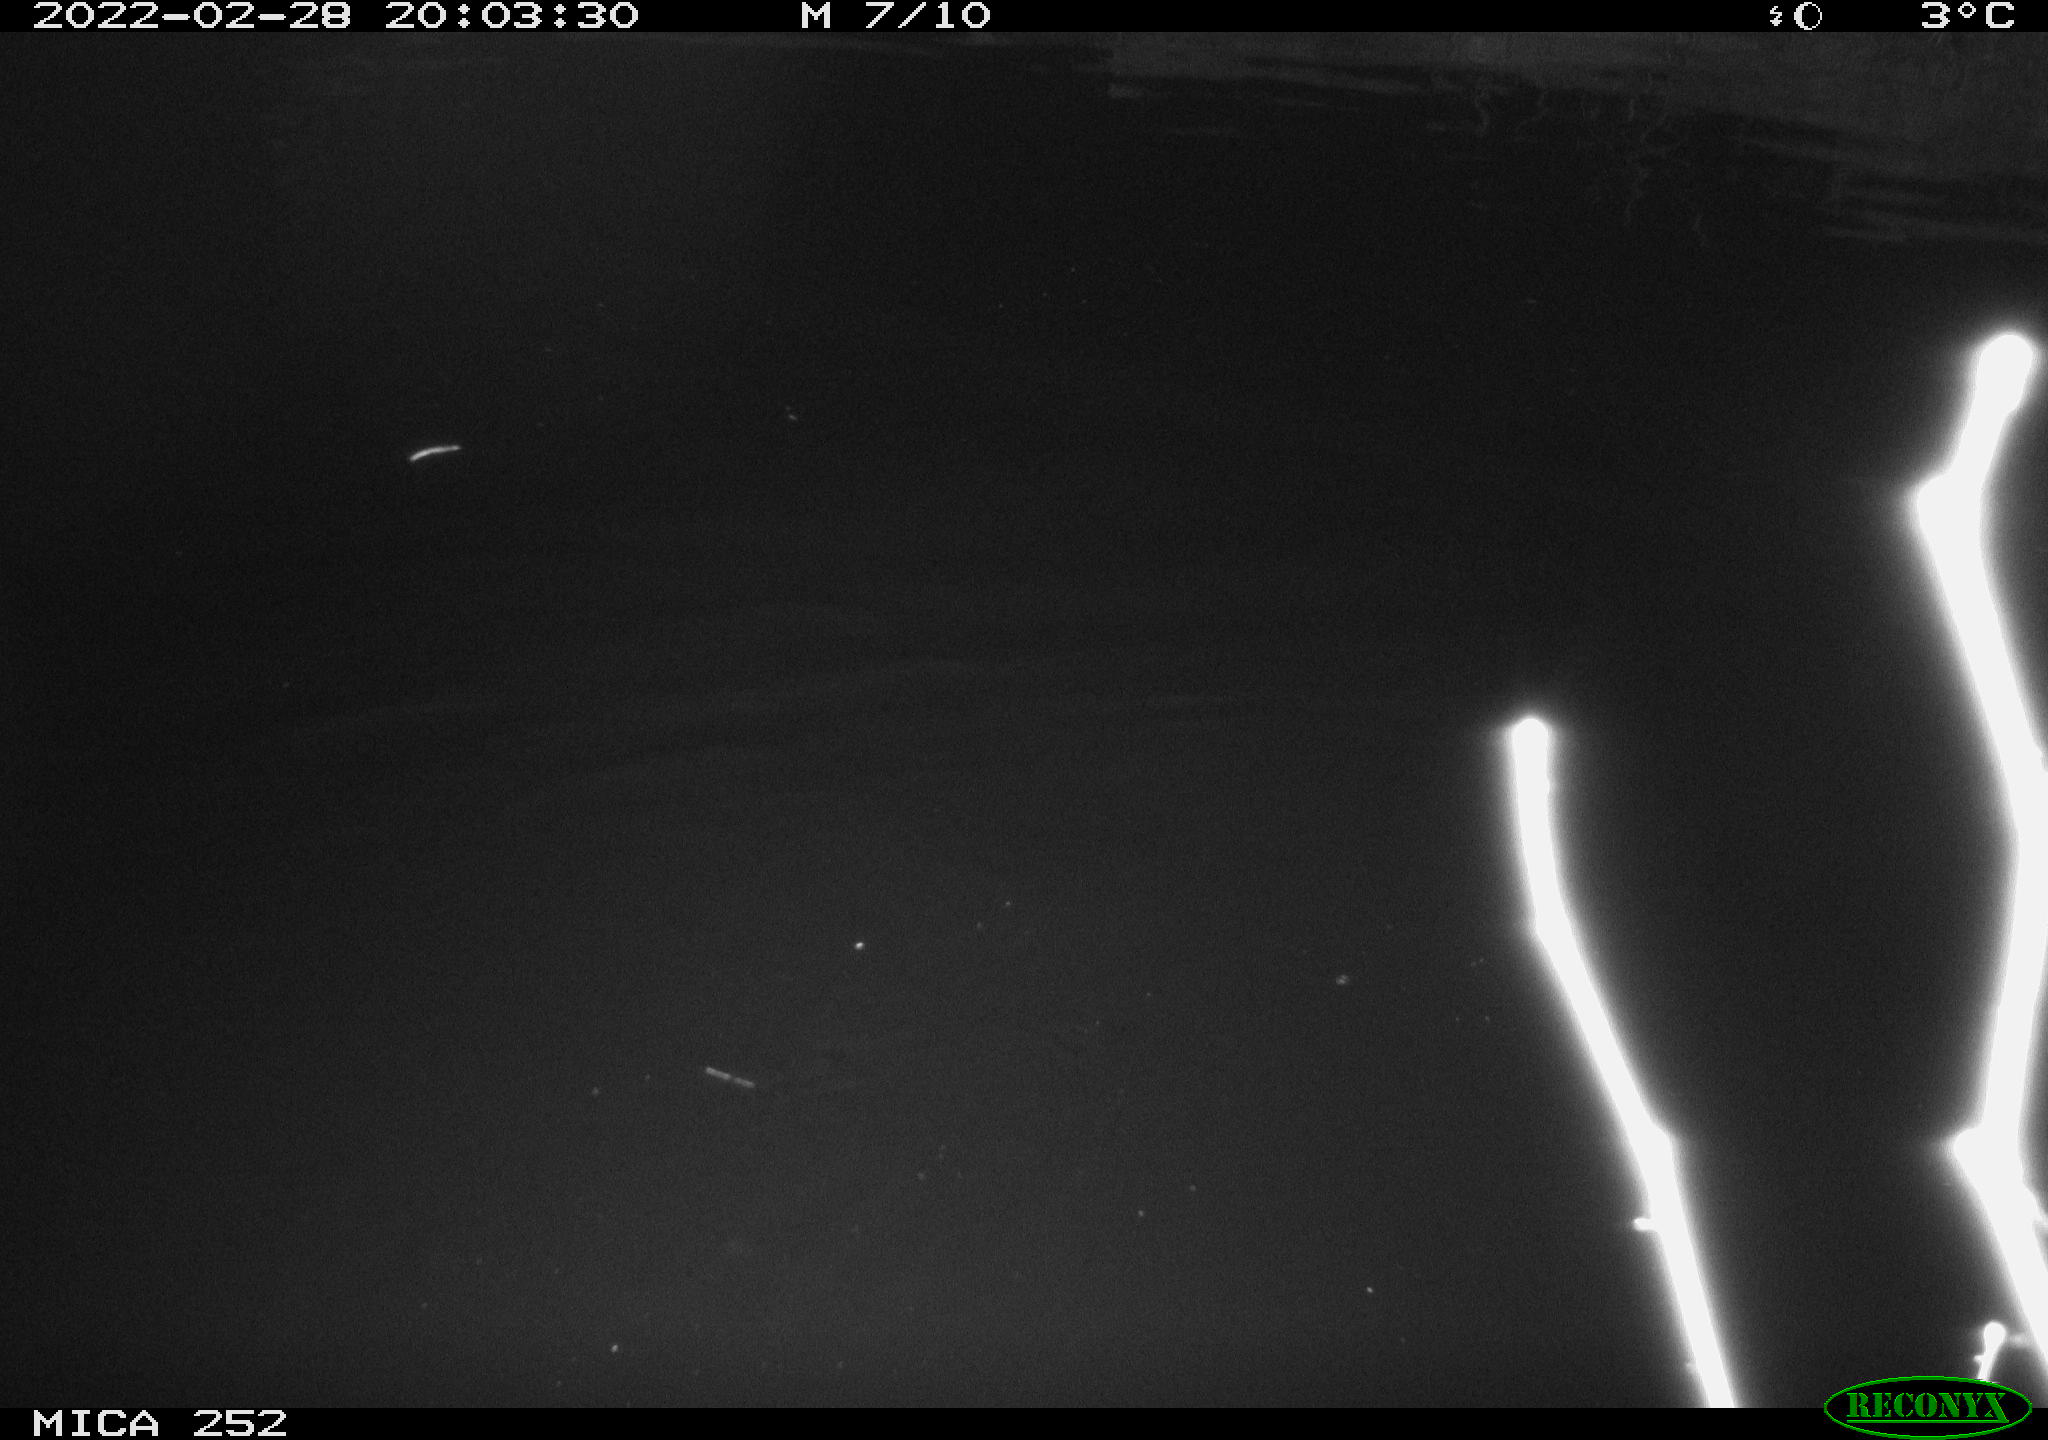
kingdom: Animalia
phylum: Chordata
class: Mammalia
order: Rodentia
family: Castoridae
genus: Castor
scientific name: Castor fiber
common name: Eurasian beaver
